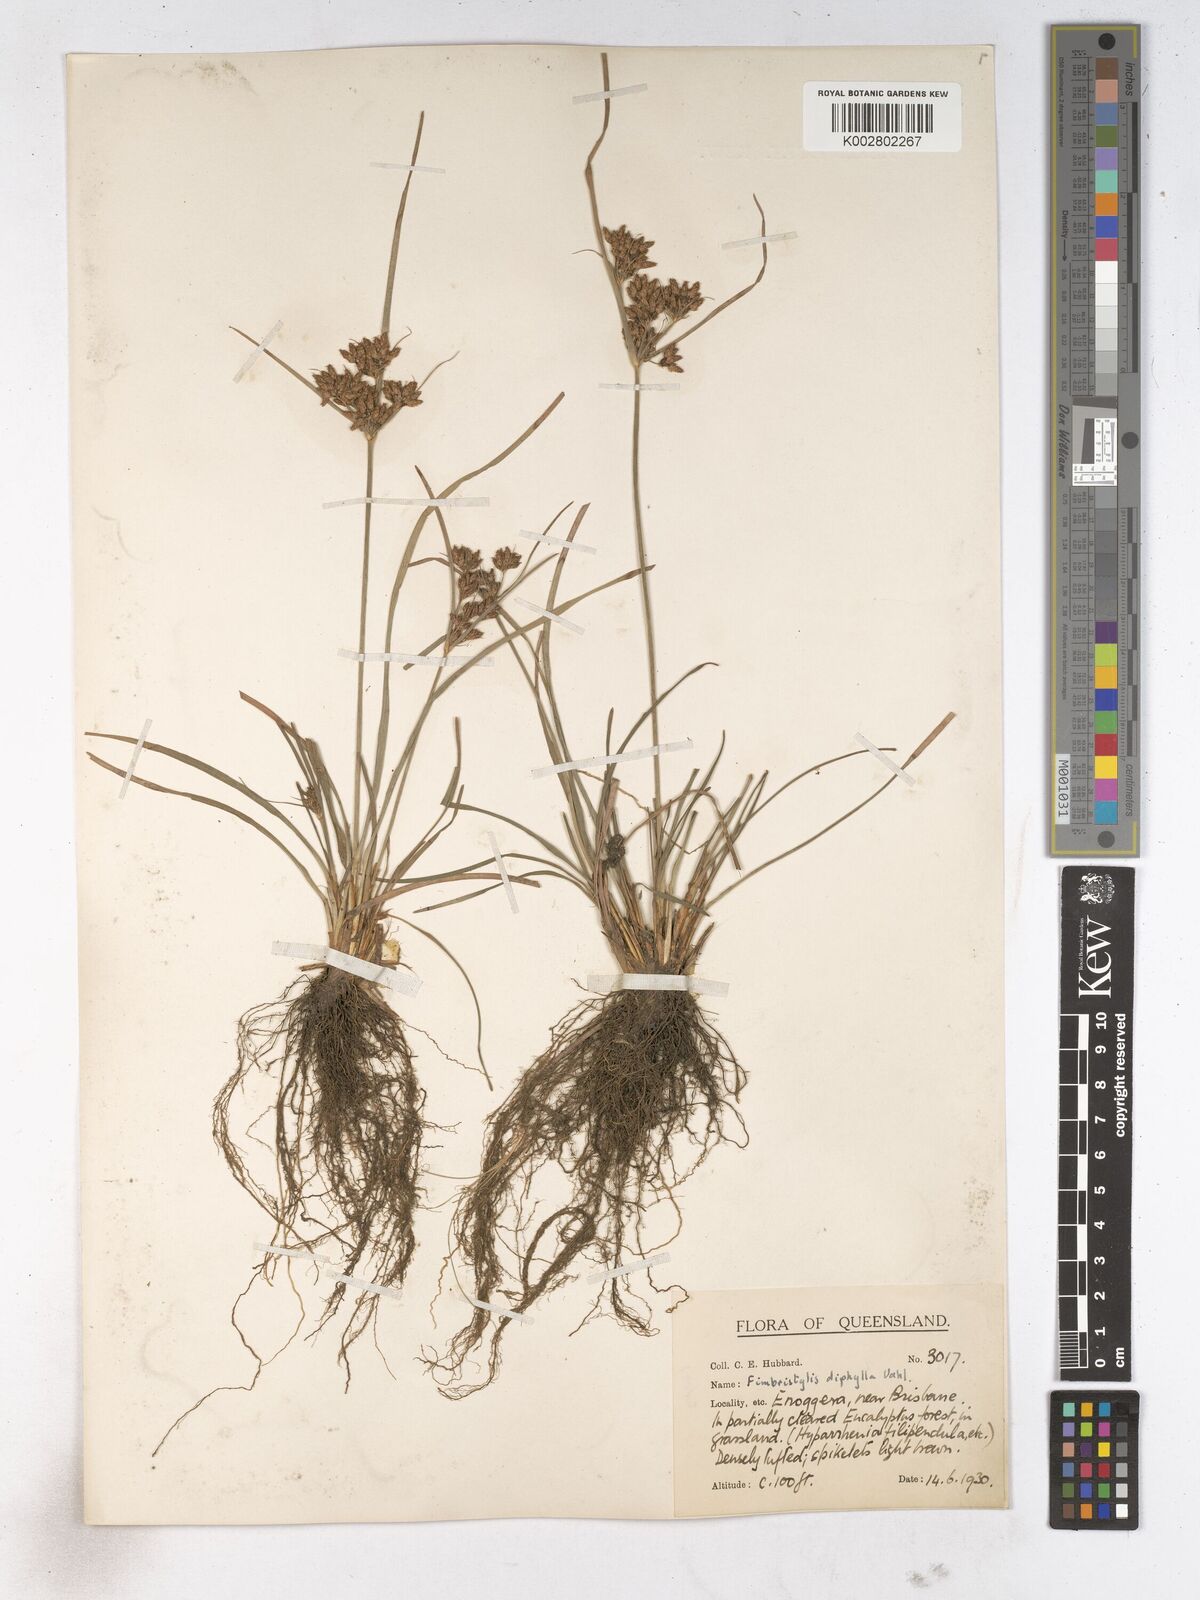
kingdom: Plantae
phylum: Tracheophyta
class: Liliopsida
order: Poales
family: Cyperaceae
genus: Fimbristylis
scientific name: Fimbristylis dichotoma
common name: Forked fimbry
